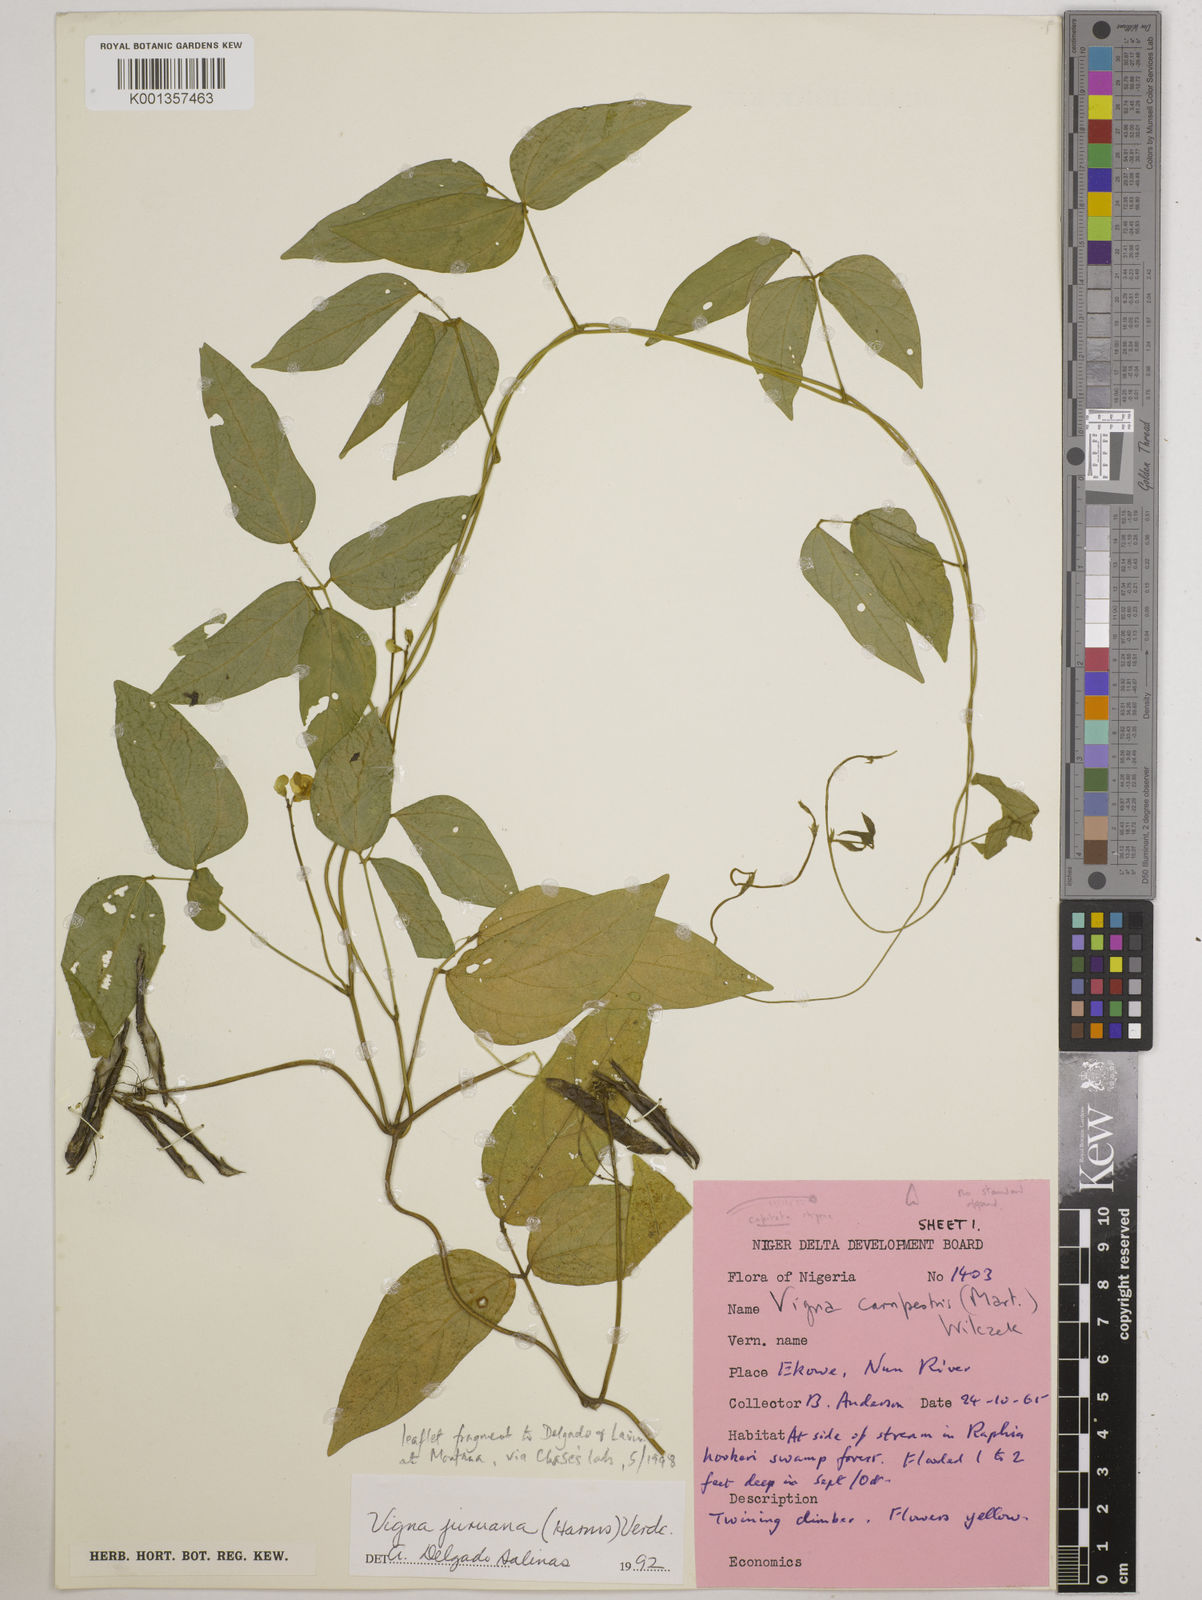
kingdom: Plantae
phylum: Tracheophyta
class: Magnoliopsida
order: Fabales
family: Fabaceae
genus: Vigna
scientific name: Vigna juruana
